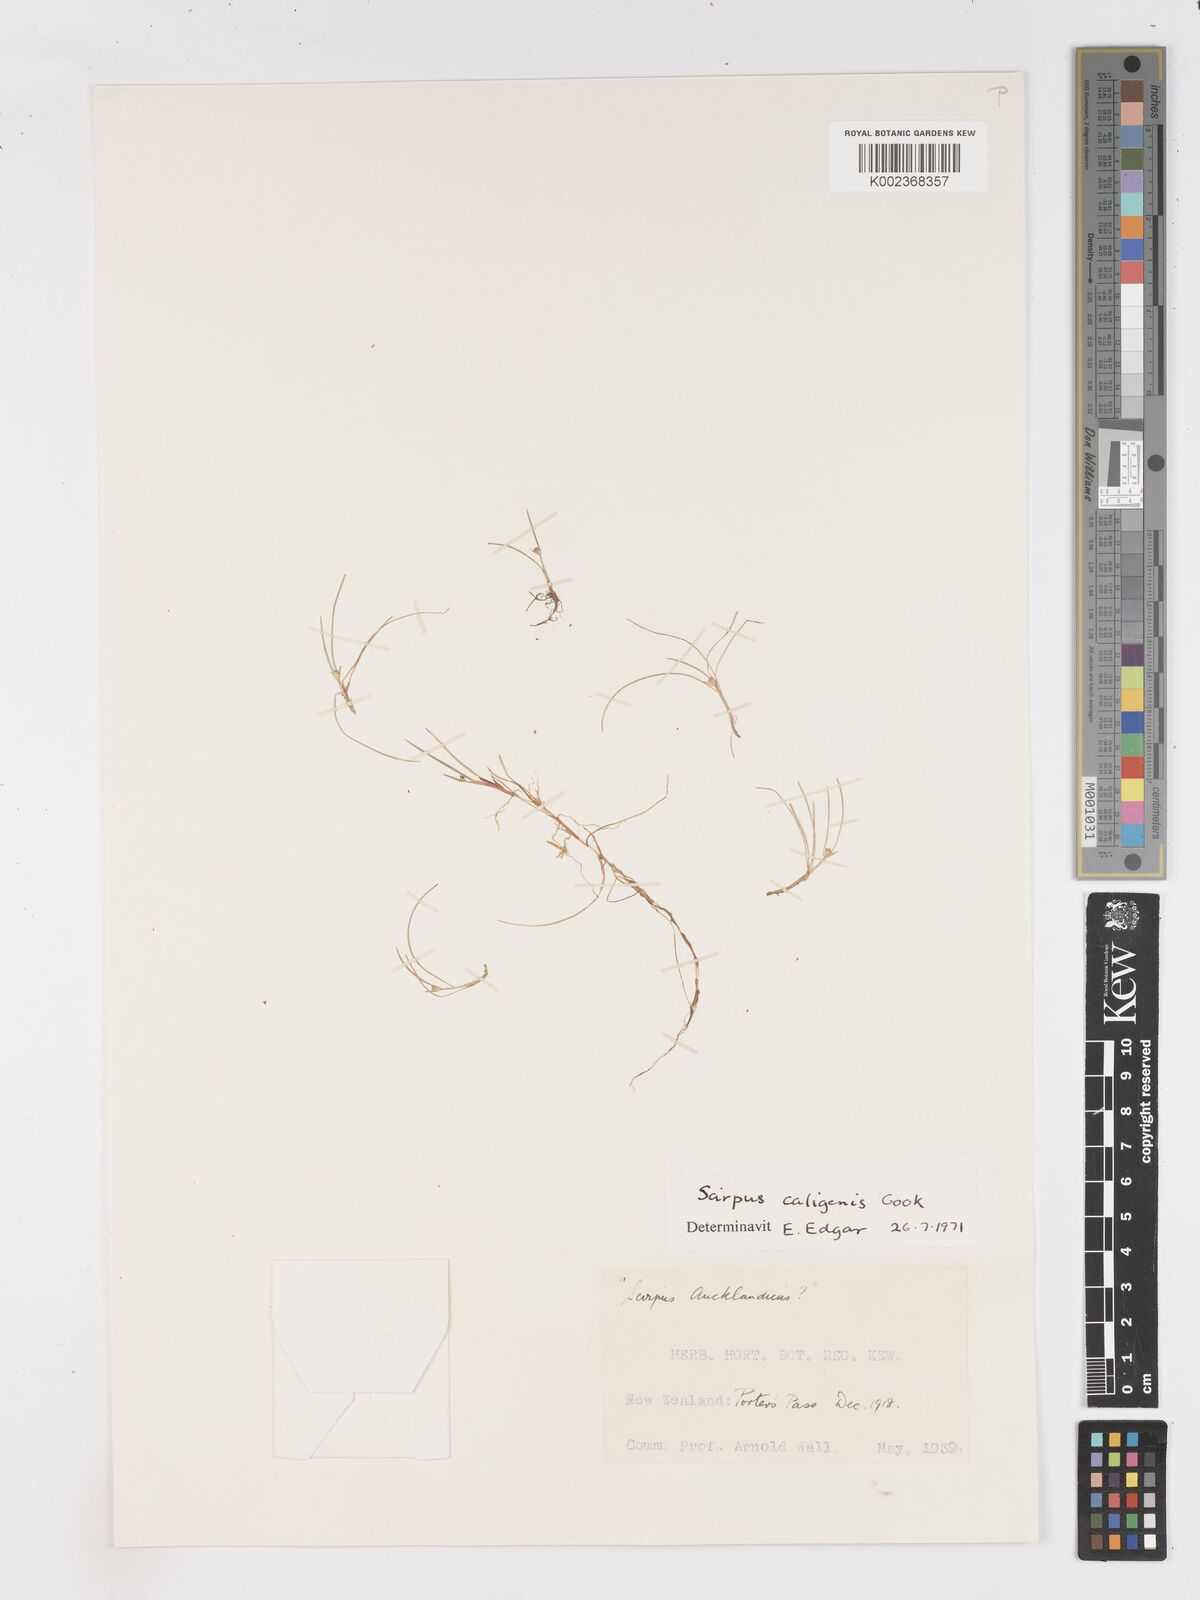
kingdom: Plantae
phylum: Tracheophyta
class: Liliopsida
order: Poales
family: Cyperaceae
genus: Isolepis
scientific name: Isolepis caligenis
